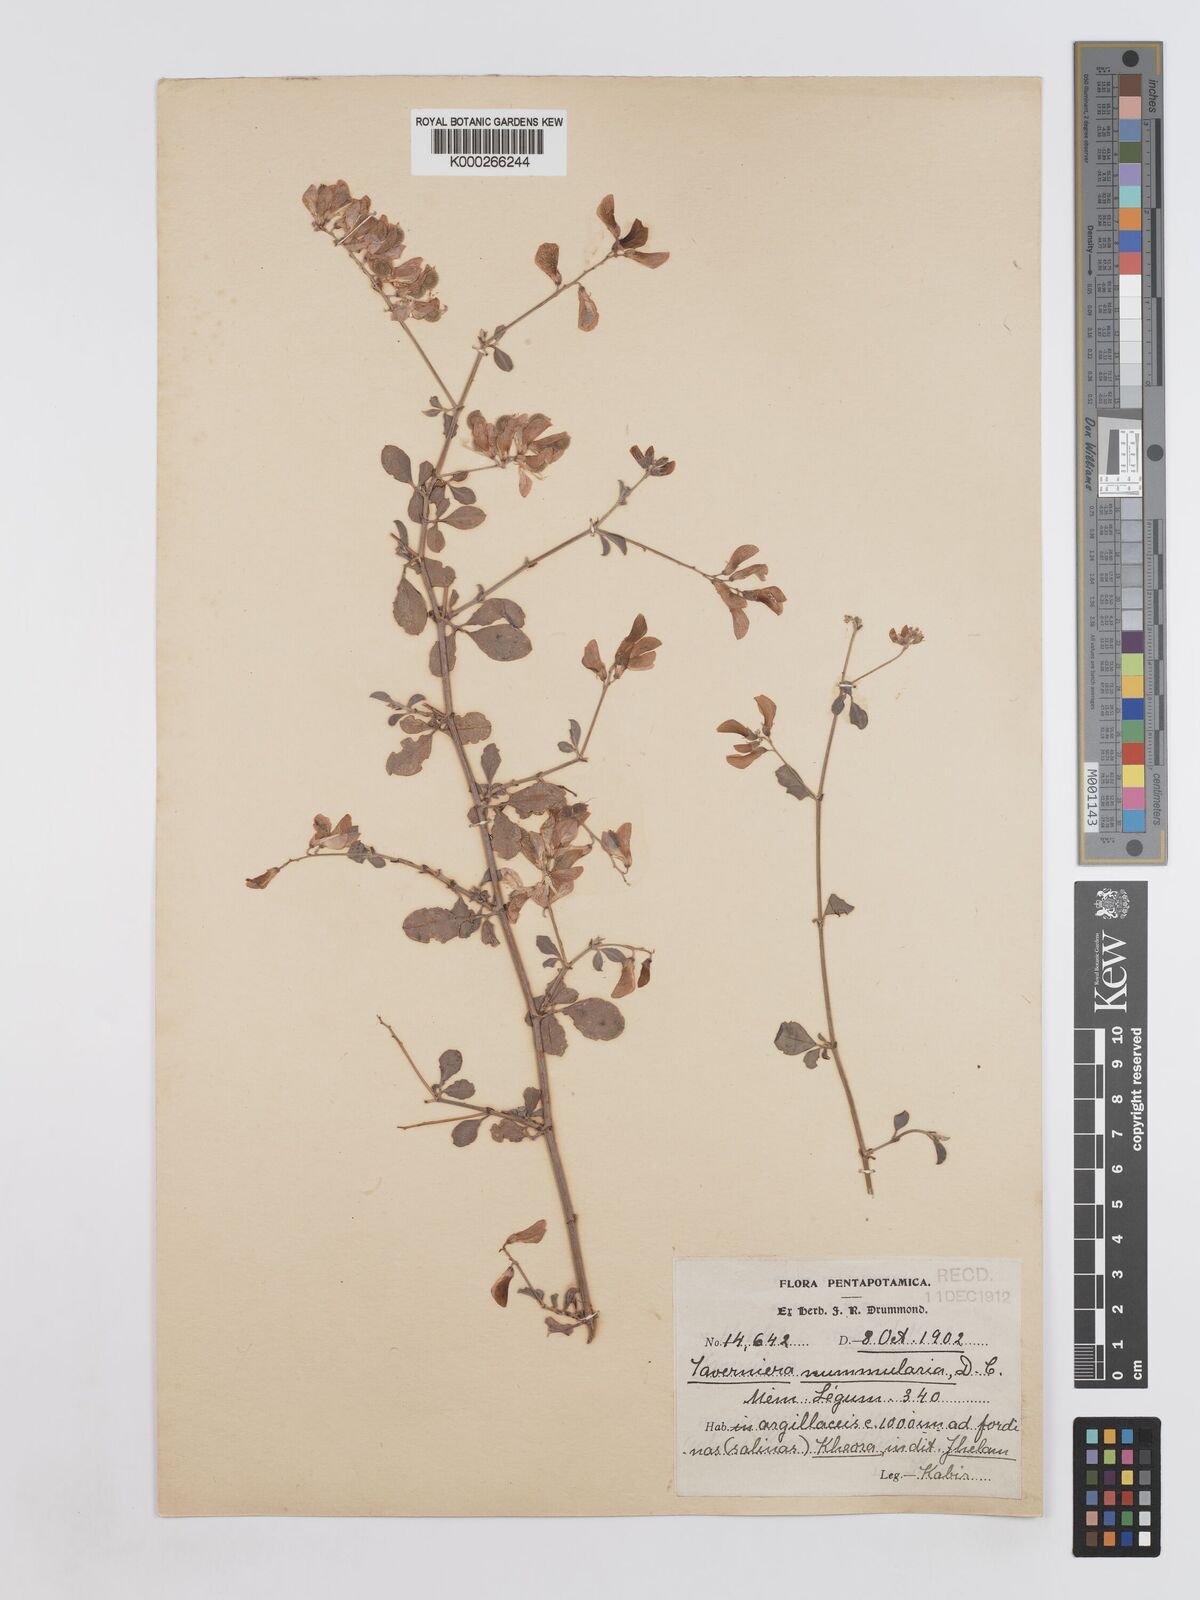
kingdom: Plantae
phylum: Tracheophyta
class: Magnoliopsida
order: Fabales
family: Fabaceae
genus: Taverniera
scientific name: Taverniera nummularia
